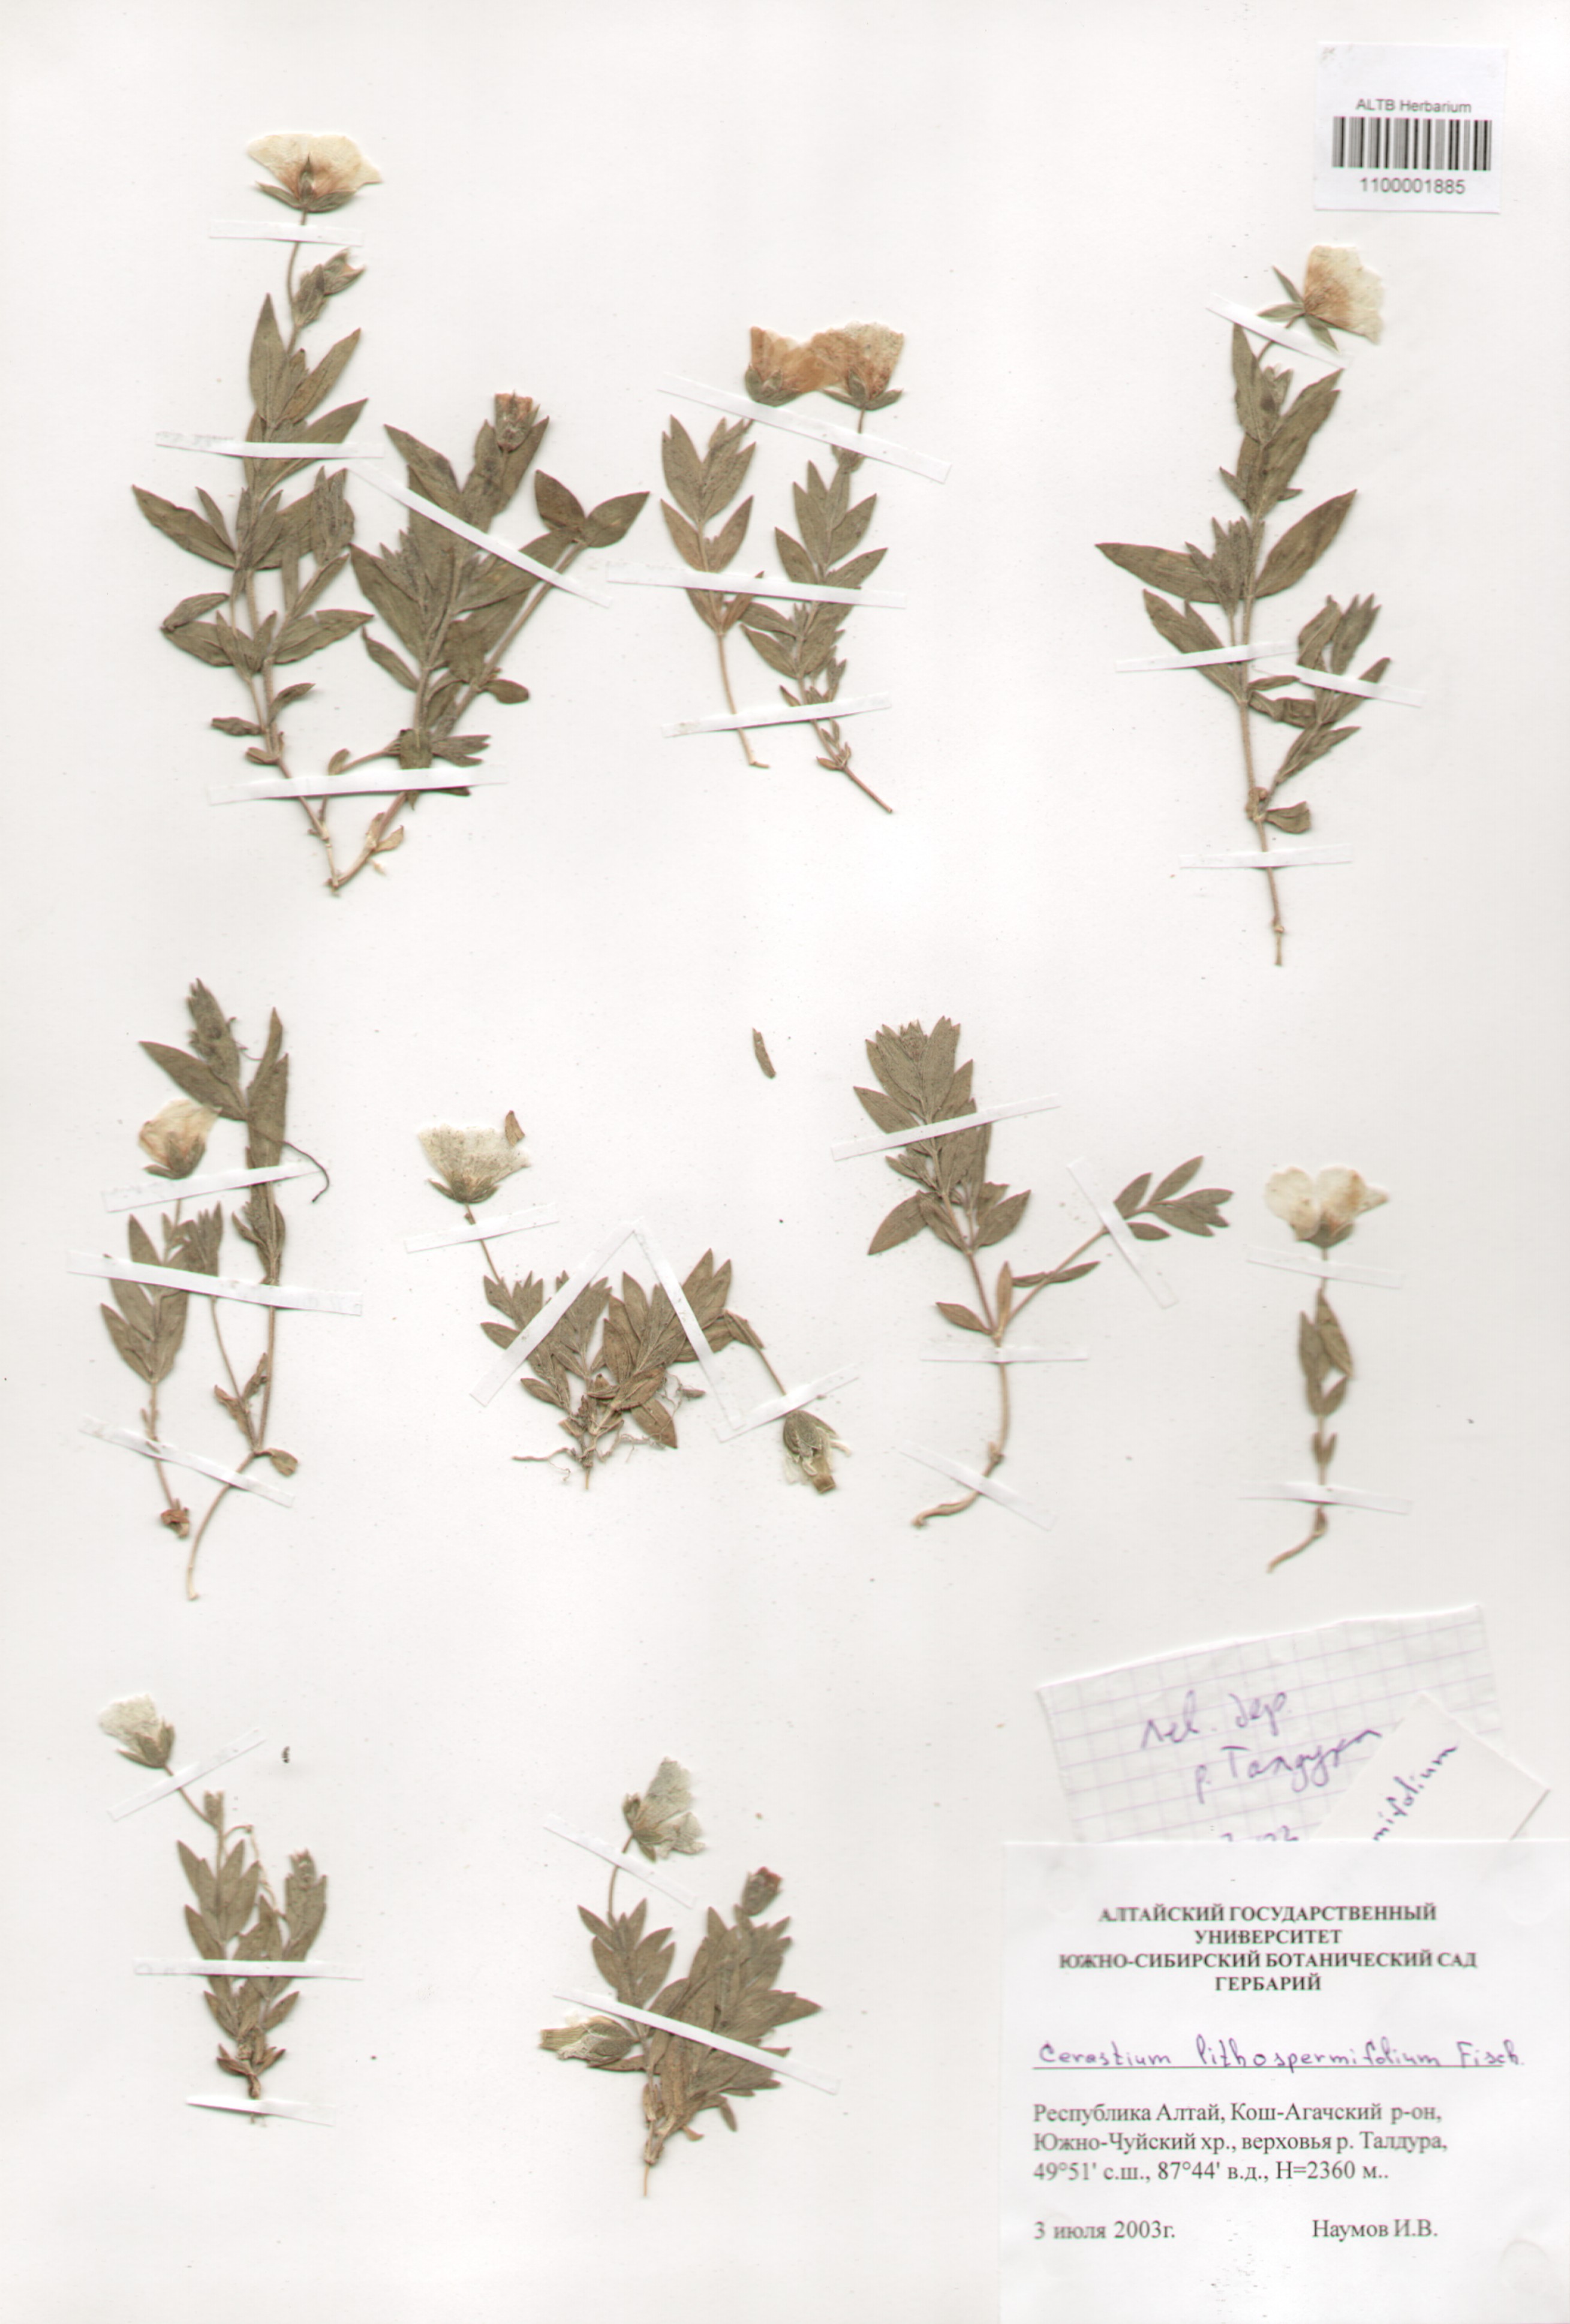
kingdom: Plantae
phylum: Tracheophyta
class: Magnoliopsida
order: Caryophyllales
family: Caryophyllaceae
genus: Cerastium
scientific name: Cerastium lithospermifolium
